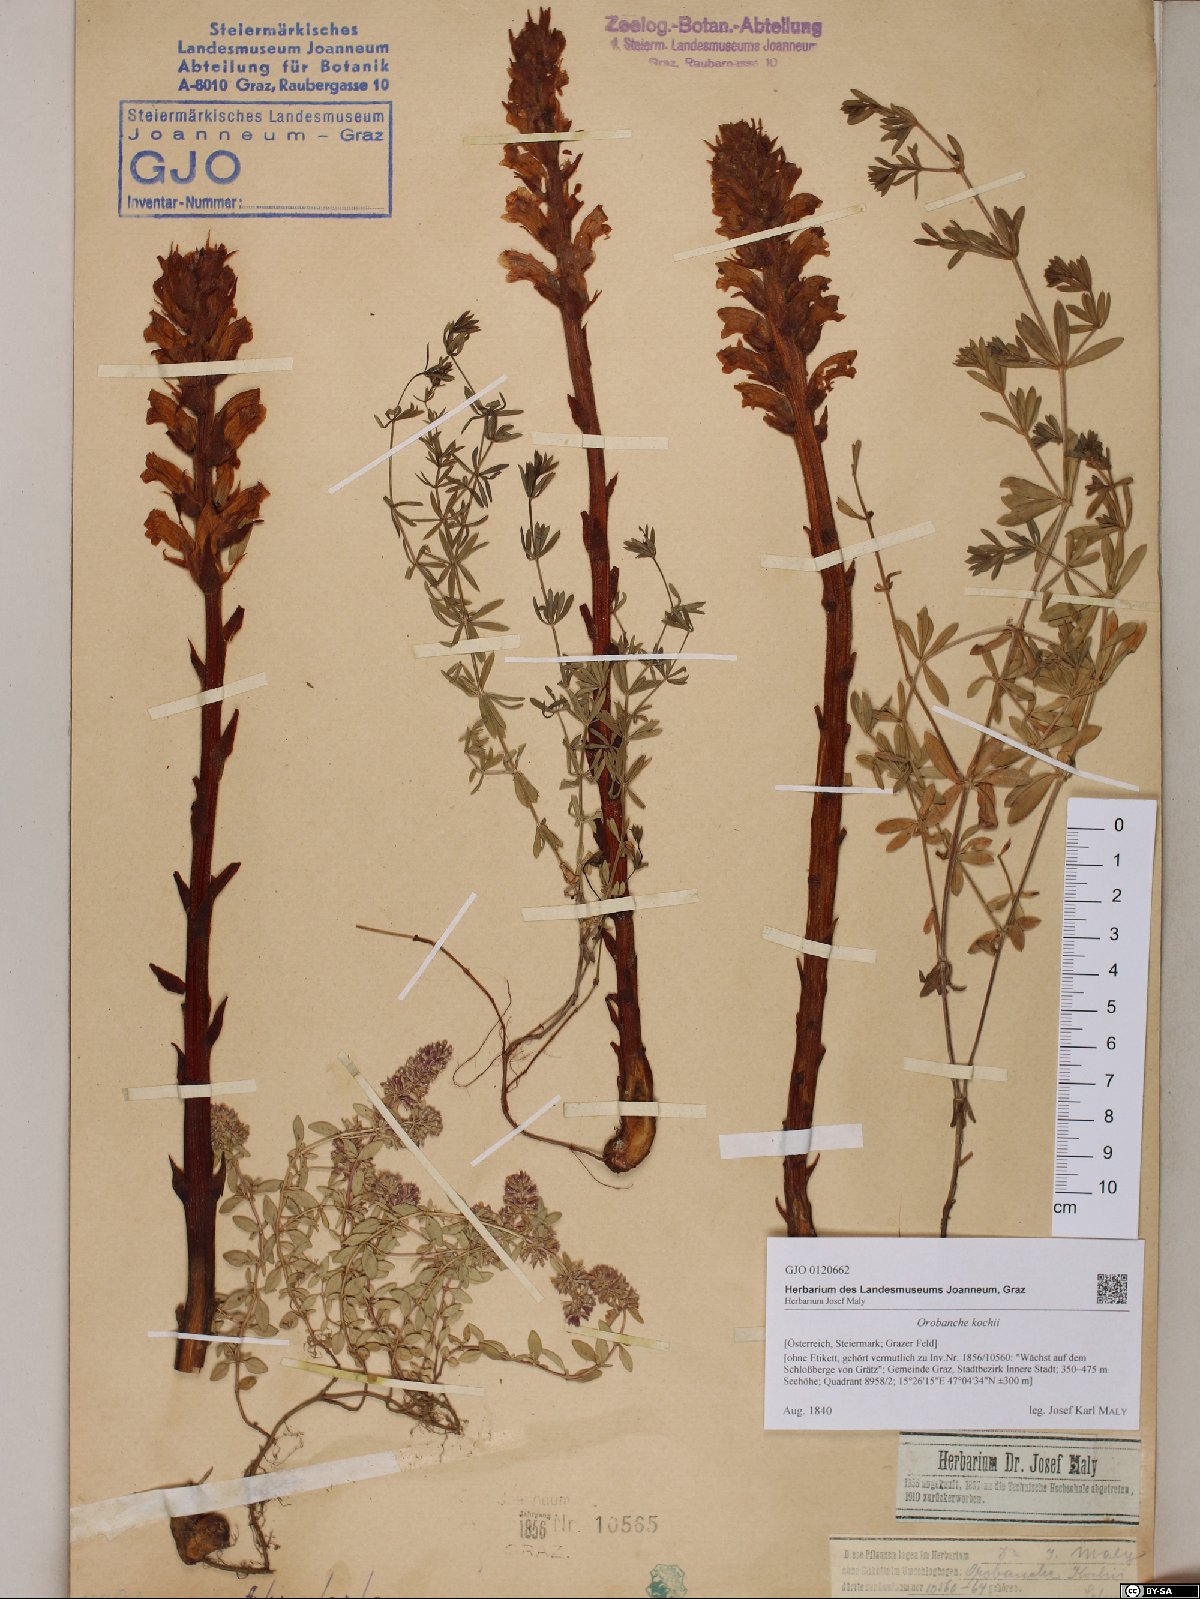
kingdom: Plantae
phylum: Tracheophyta
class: Magnoliopsida
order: Lamiales
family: Orobanchaceae
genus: Orobanche
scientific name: Orobanche centaurina
